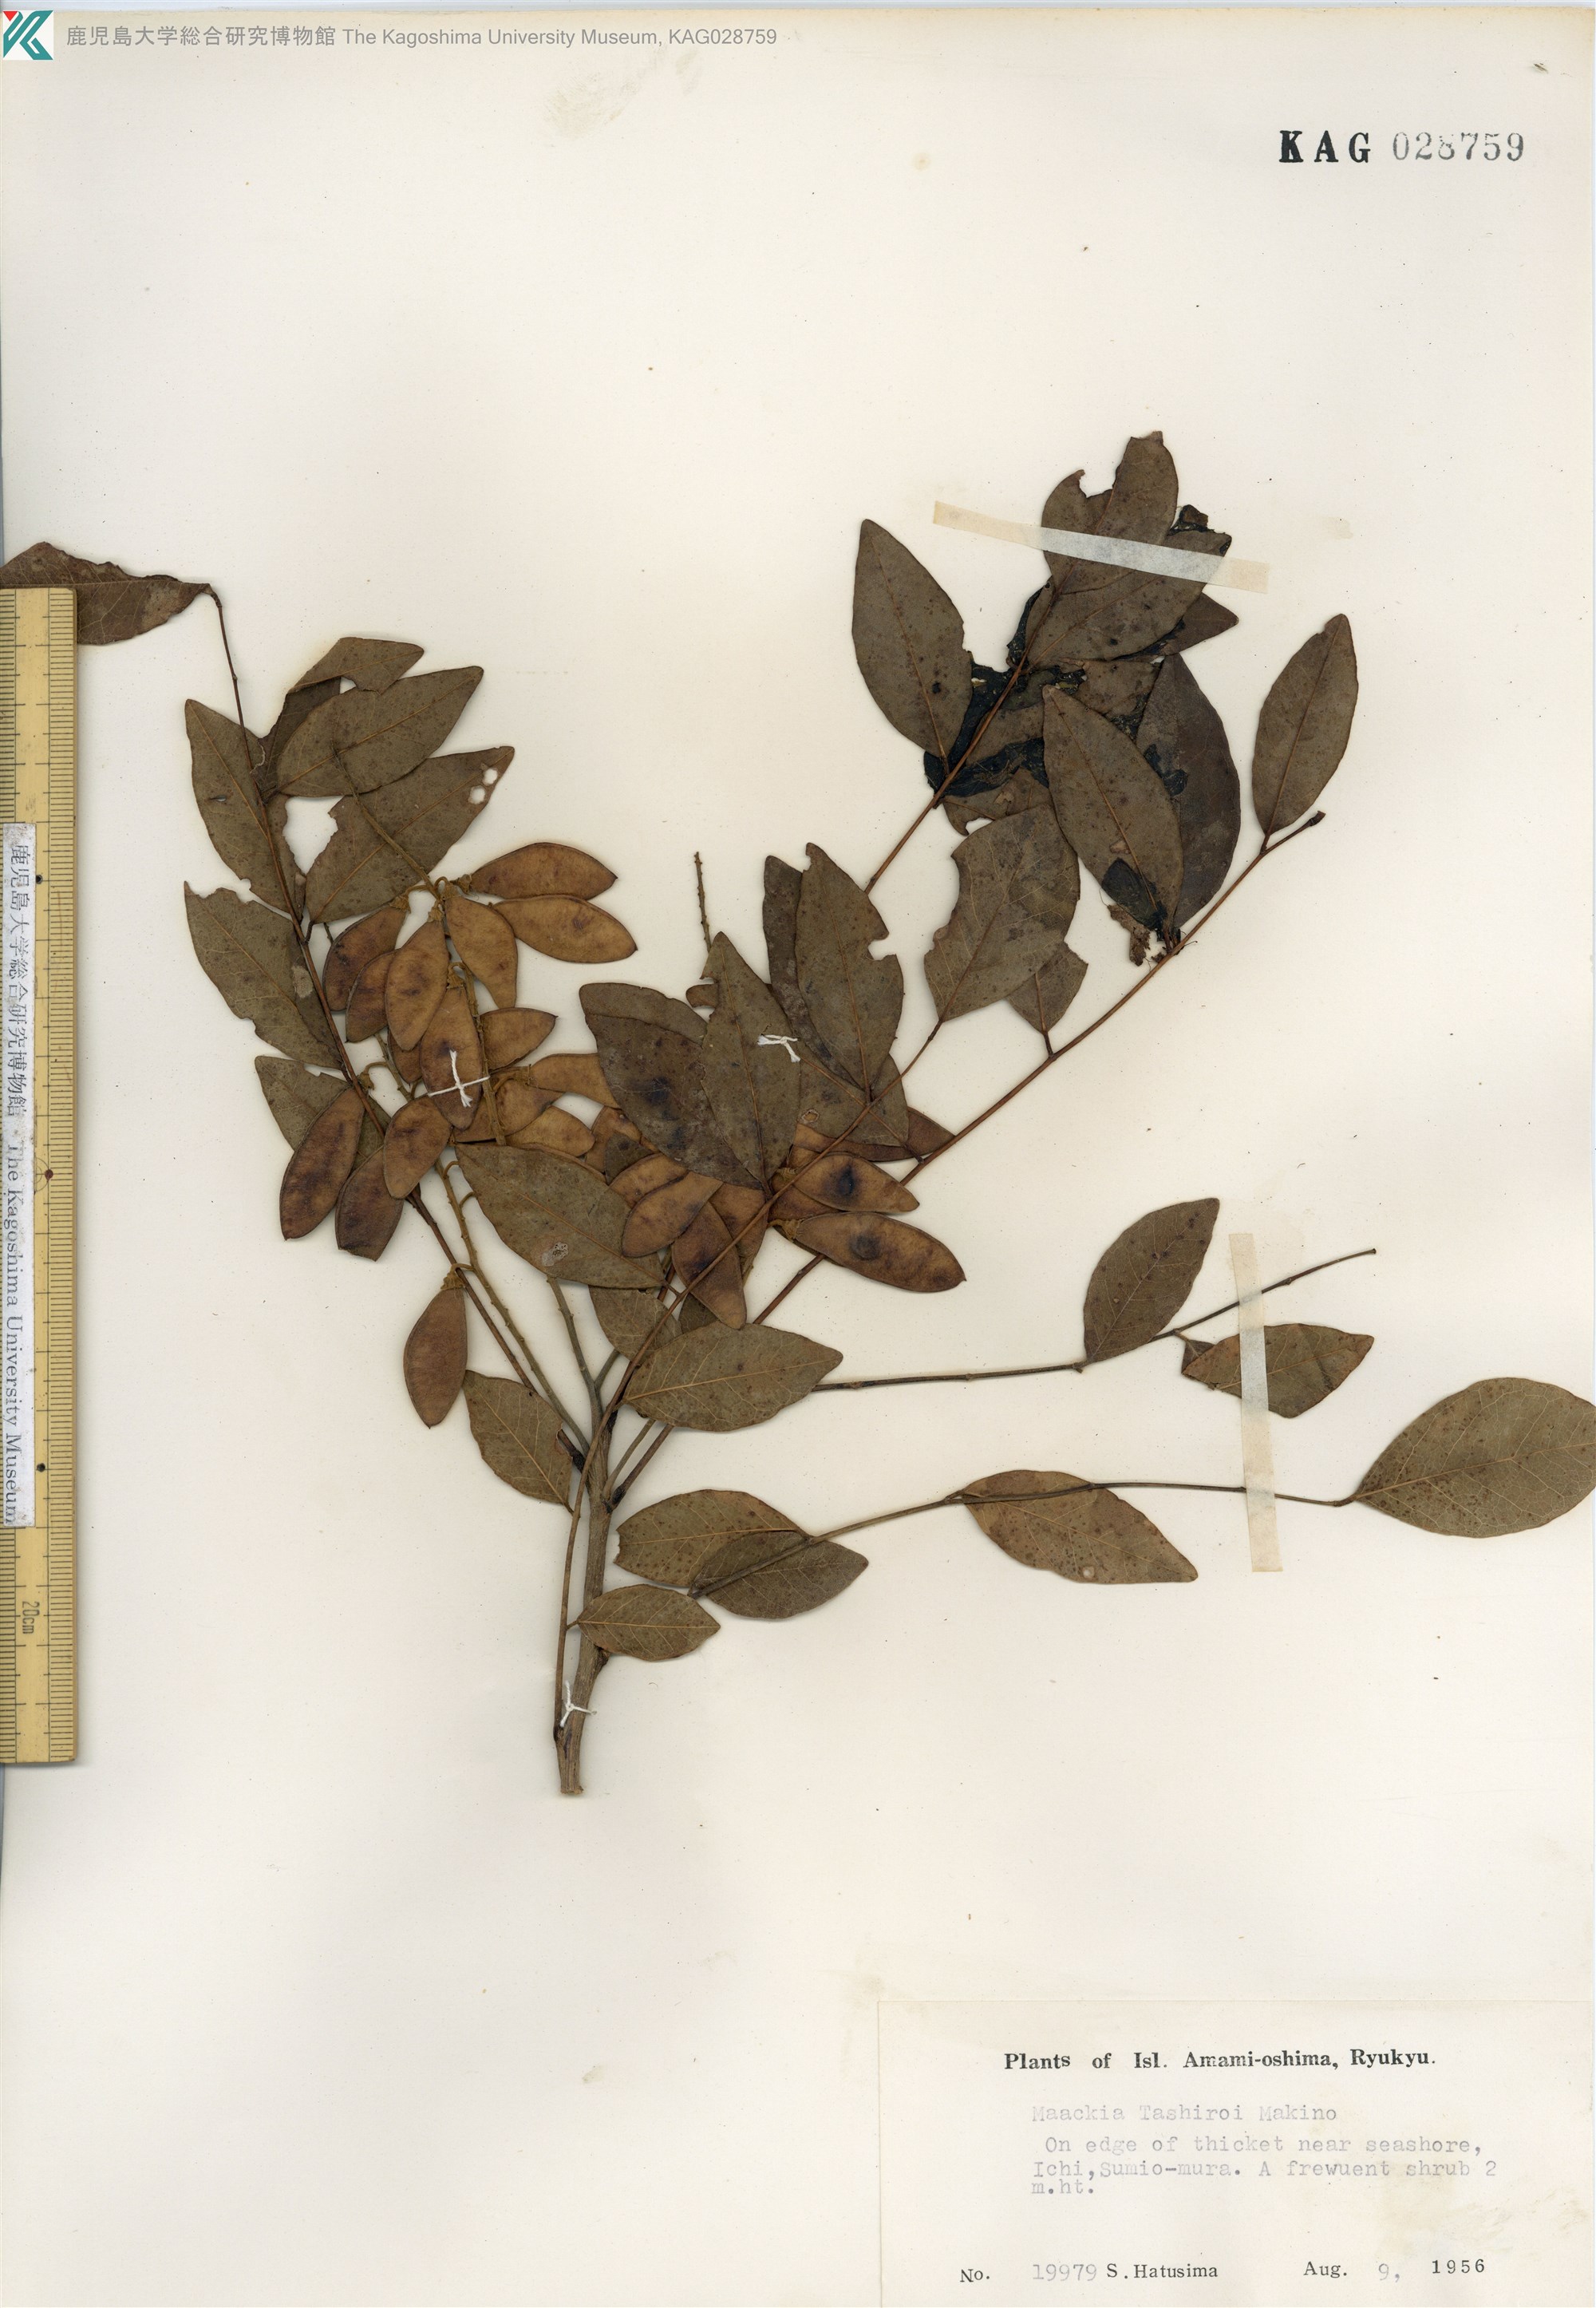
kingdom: Plantae
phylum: Tracheophyta
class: Magnoliopsida
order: Fabales
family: Fabaceae
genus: Maackia
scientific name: Maackia tashiroi
